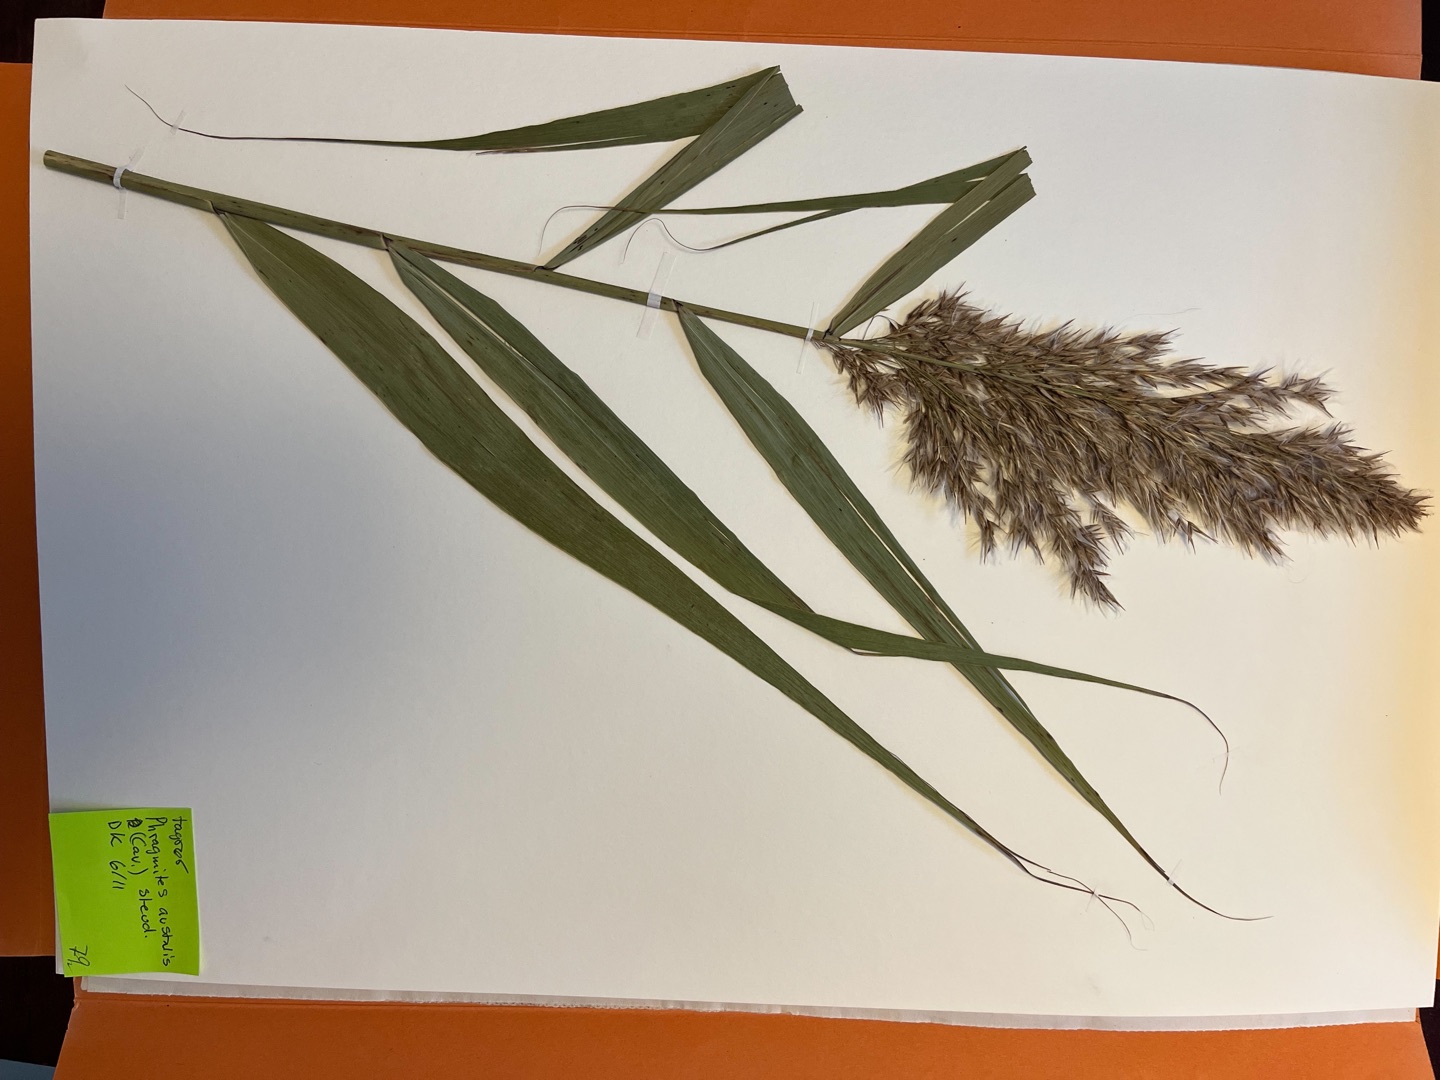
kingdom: Plantae
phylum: Tracheophyta
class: Liliopsida
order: Poales
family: Poaceae
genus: Phragmites
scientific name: Phragmites australis
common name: Tagrør
